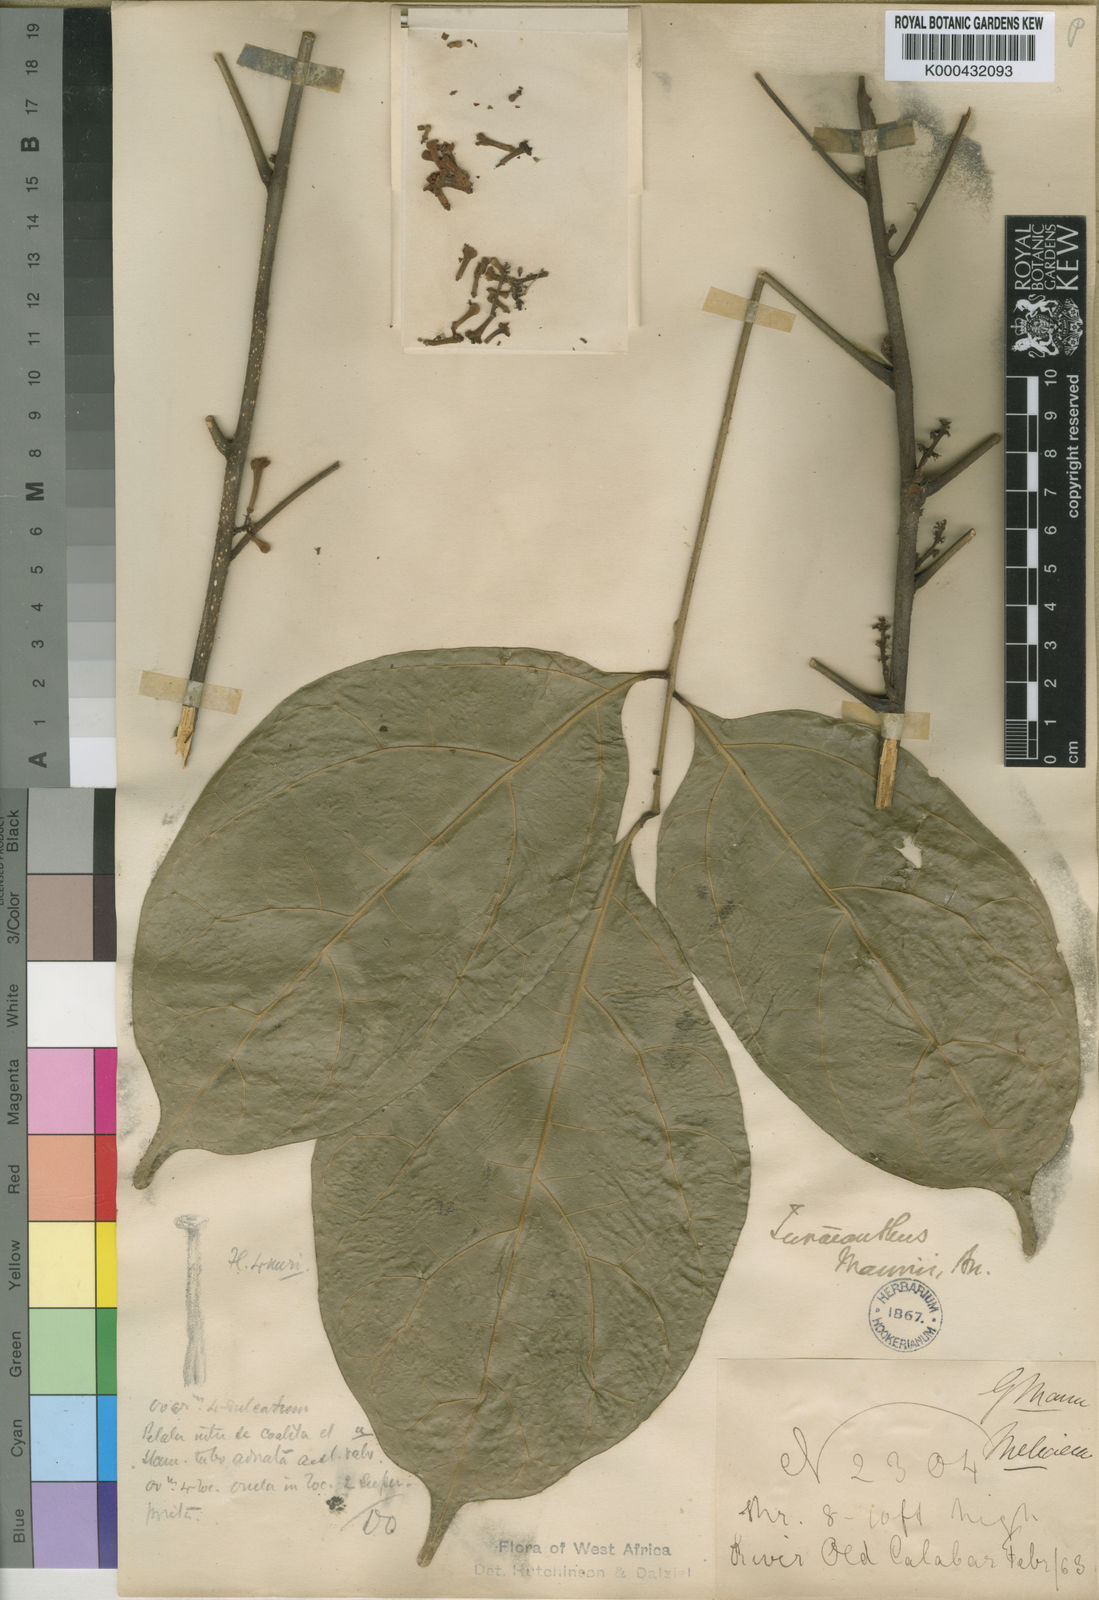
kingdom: Plantae
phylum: Tracheophyta
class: Magnoliopsida
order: Sapindales
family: Meliaceae
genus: Turraeanthus
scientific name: Turraeanthus mannii
